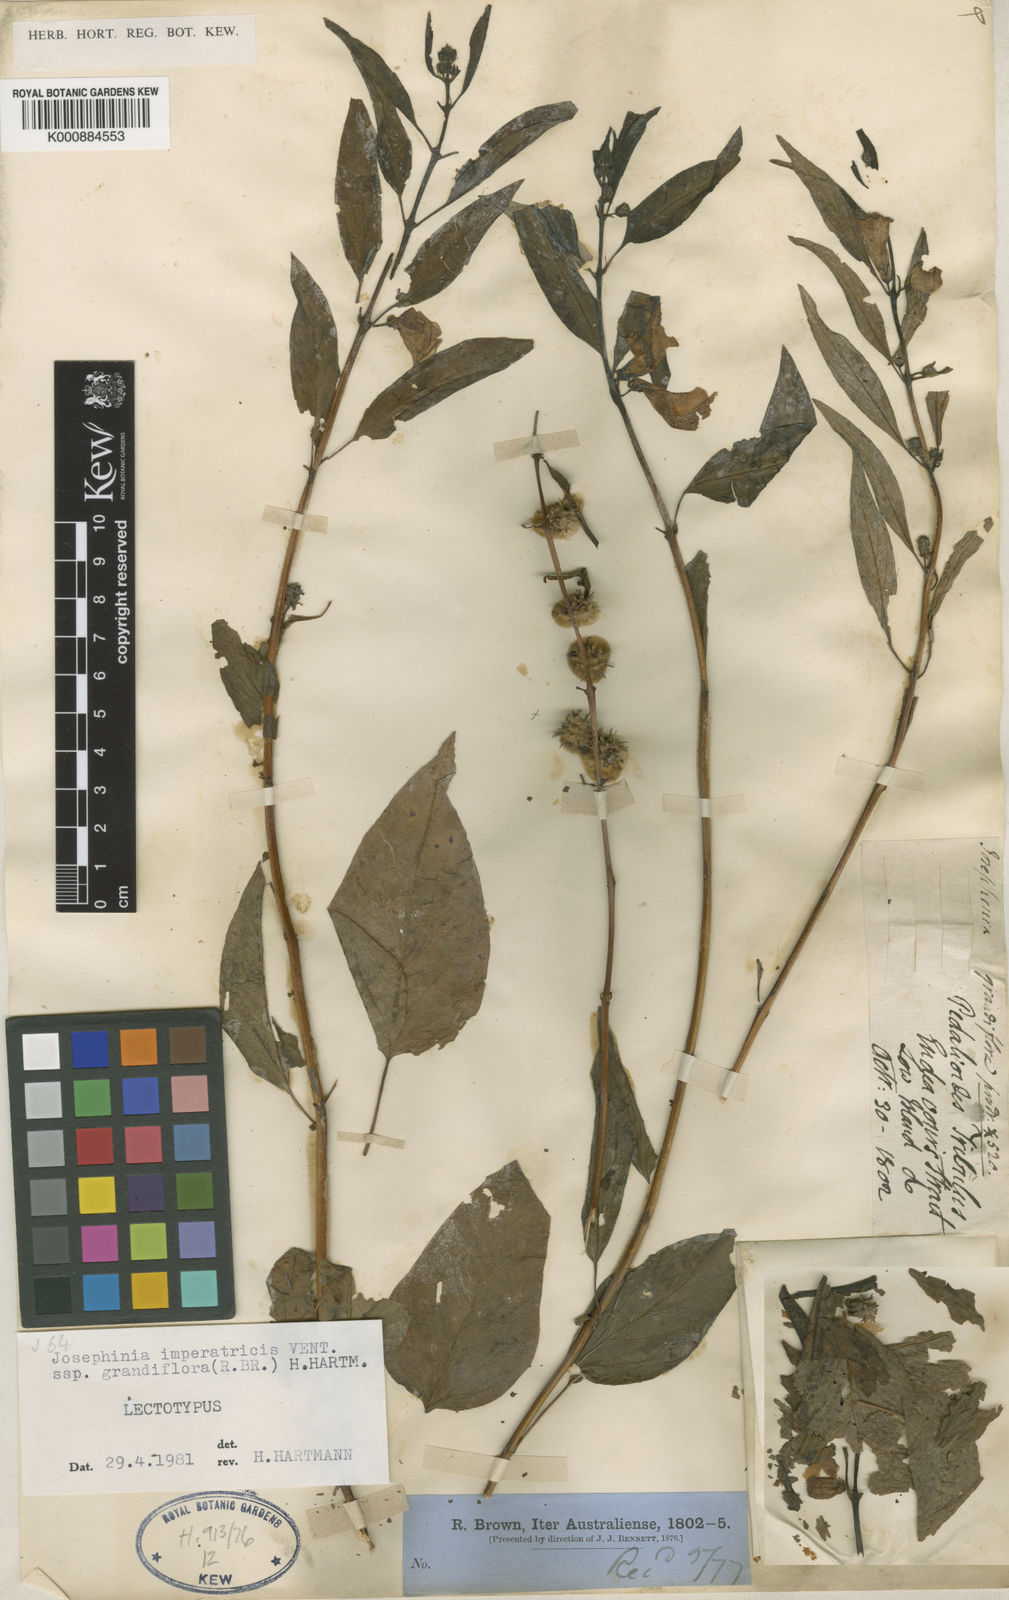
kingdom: Plantae
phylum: Tracheophyta
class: Magnoliopsida
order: Lamiales
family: Pedaliaceae
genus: Josephinia
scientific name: Josephinia celebica
